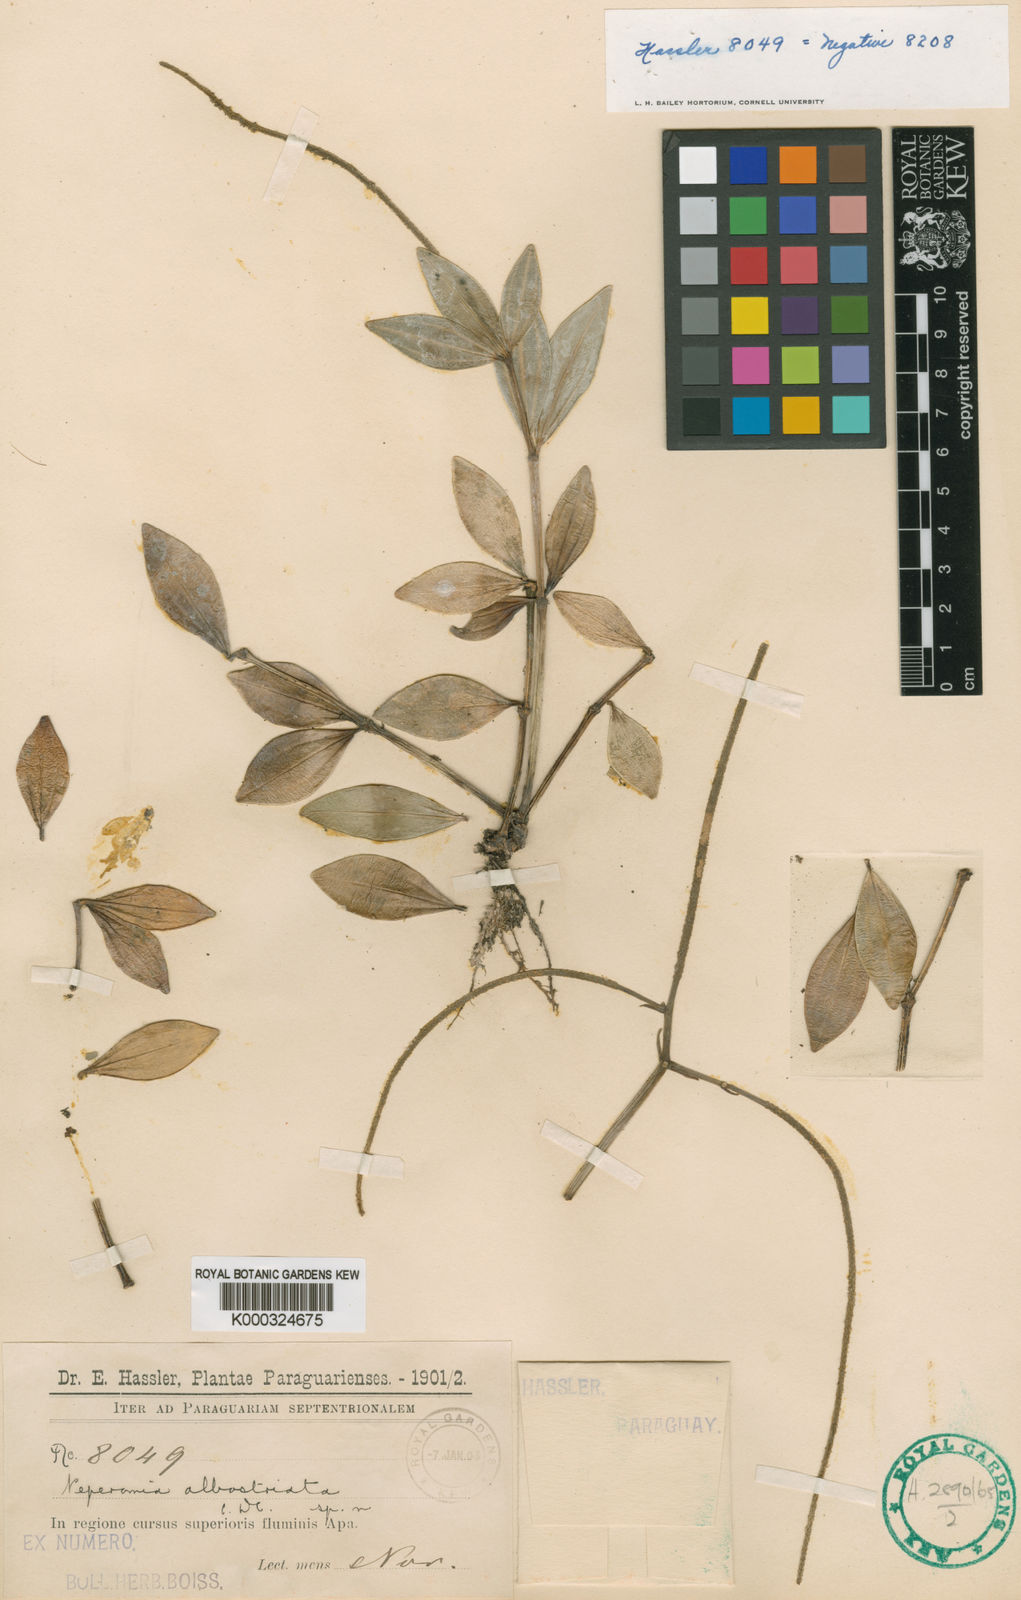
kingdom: Plantae
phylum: Tracheophyta
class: Magnoliopsida
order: Piperales
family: Piperaceae
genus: Peperomia
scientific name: Peperomia tetragona
